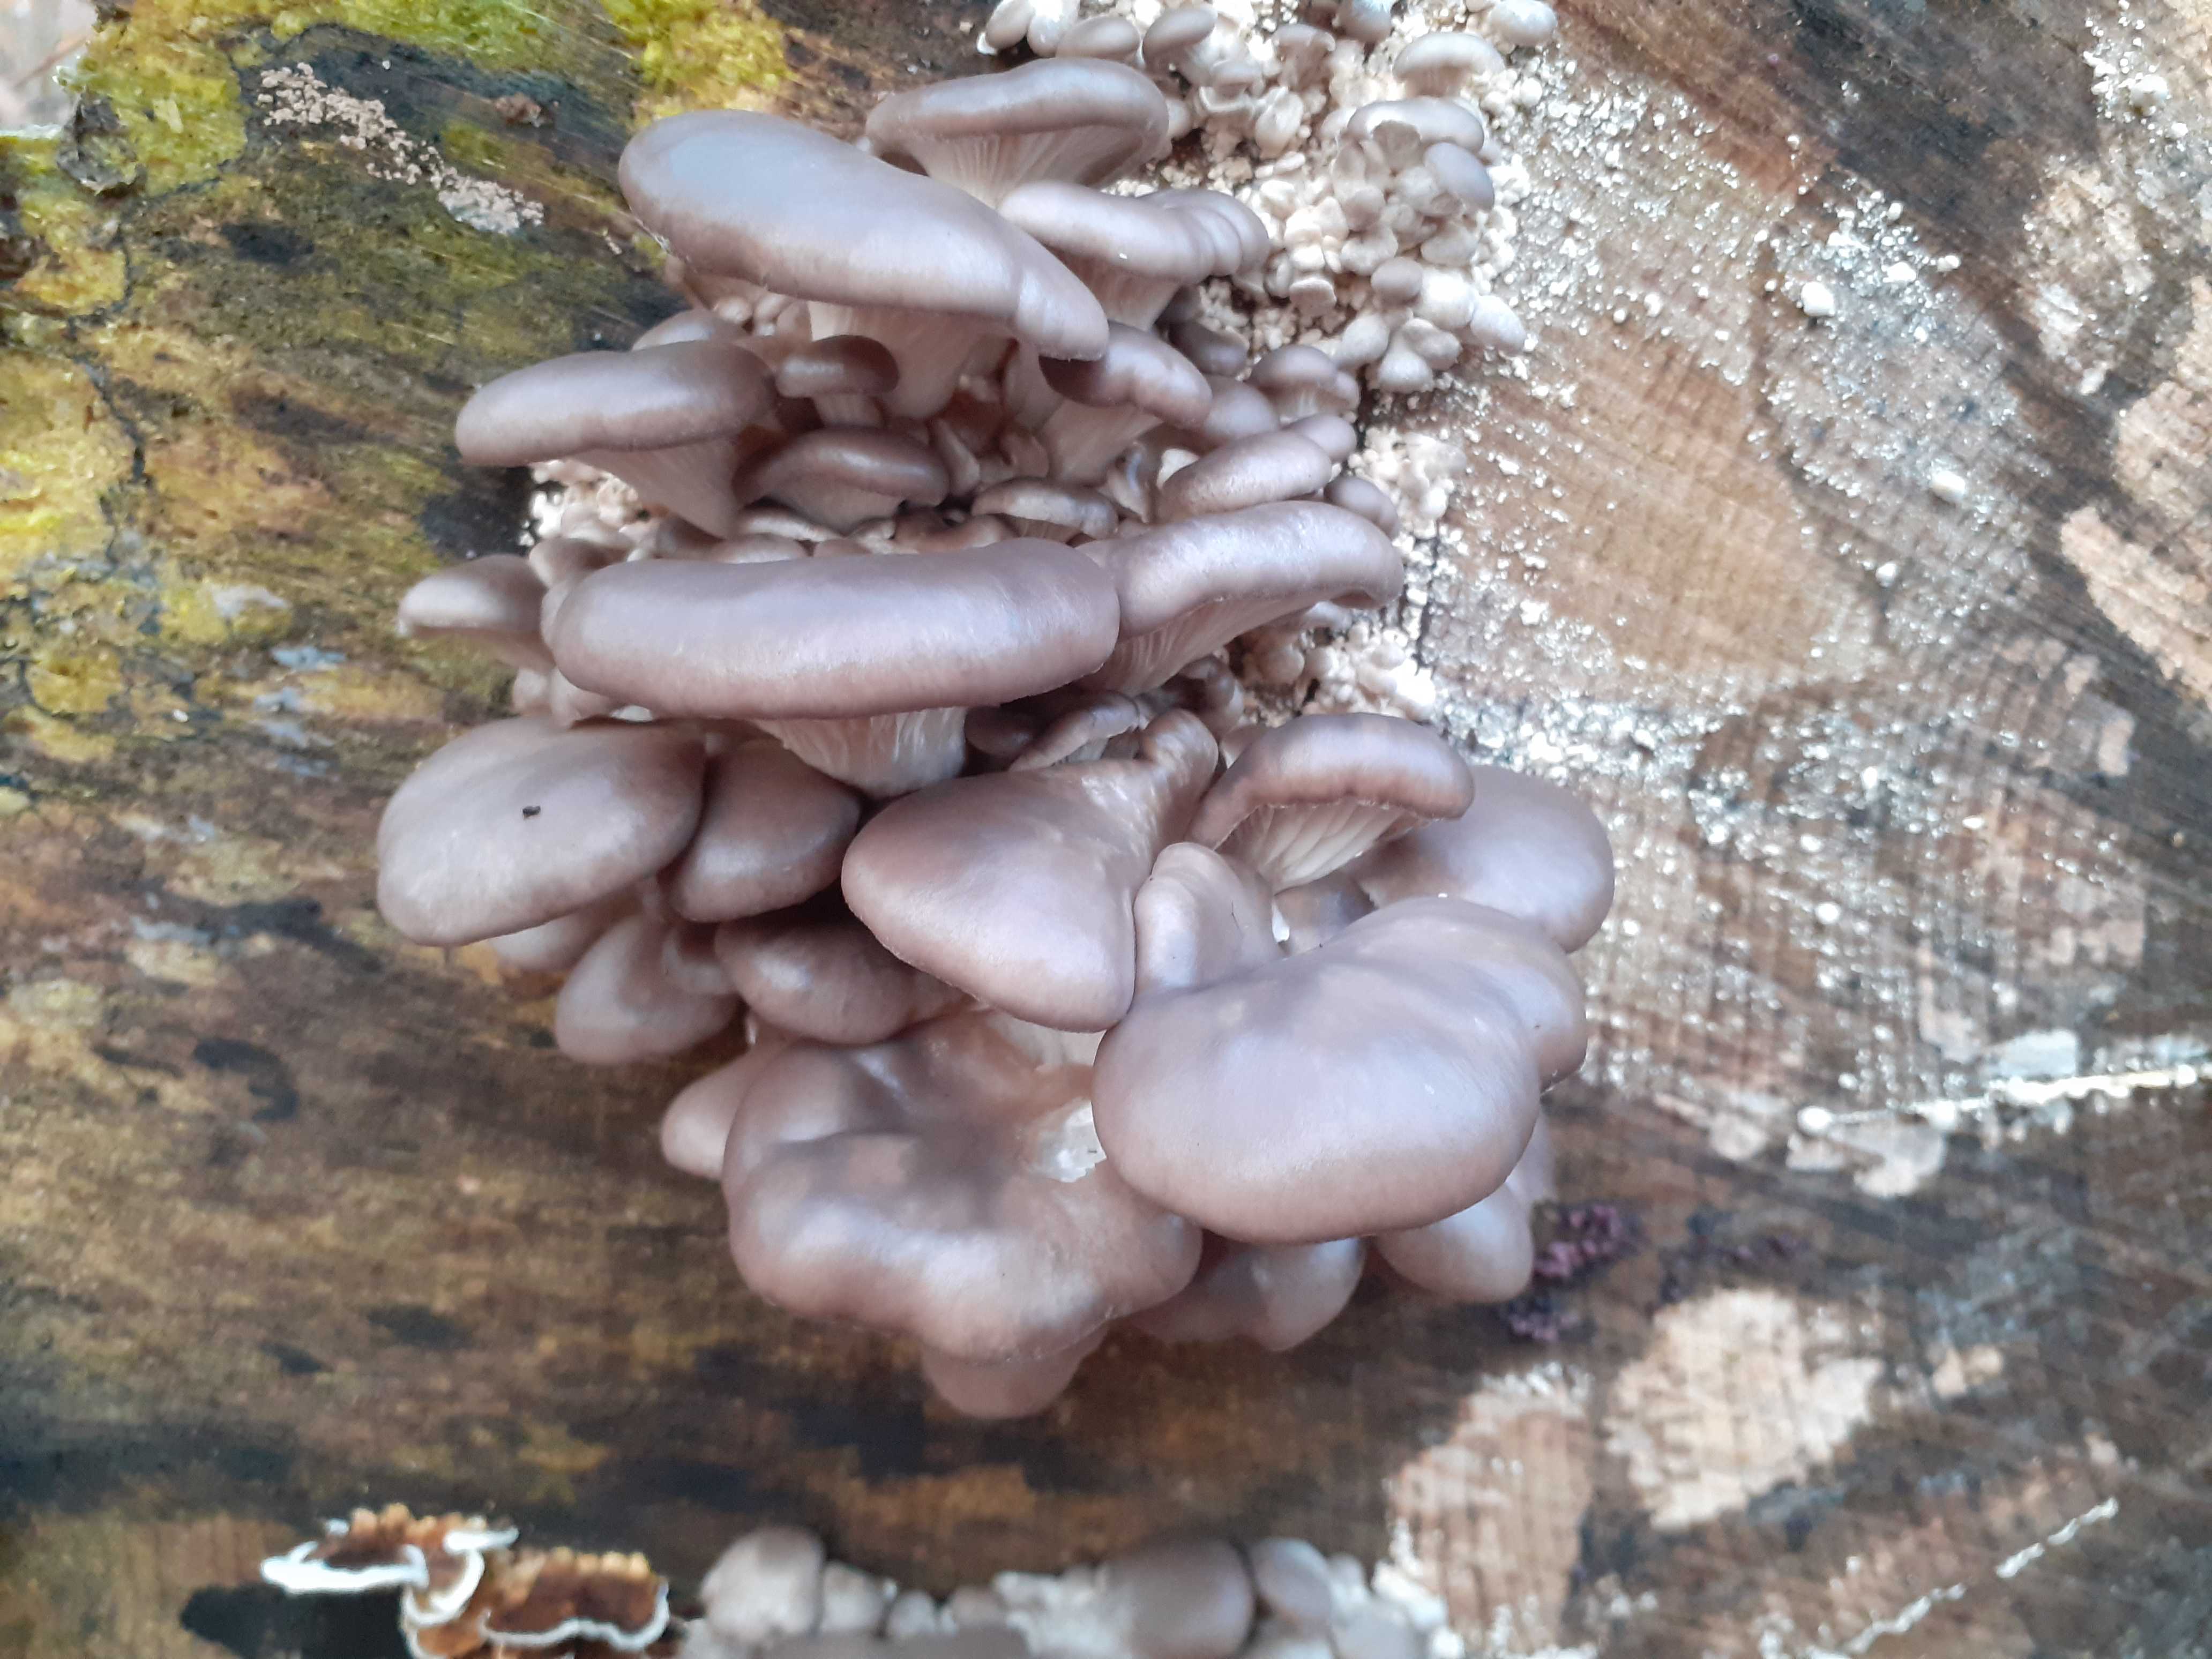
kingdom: Fungi
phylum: Basidiomycota
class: Agaricomycetes
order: Agaricales
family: Pleurotaceae
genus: Pleurotus
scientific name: Pleurotus ostreatus
